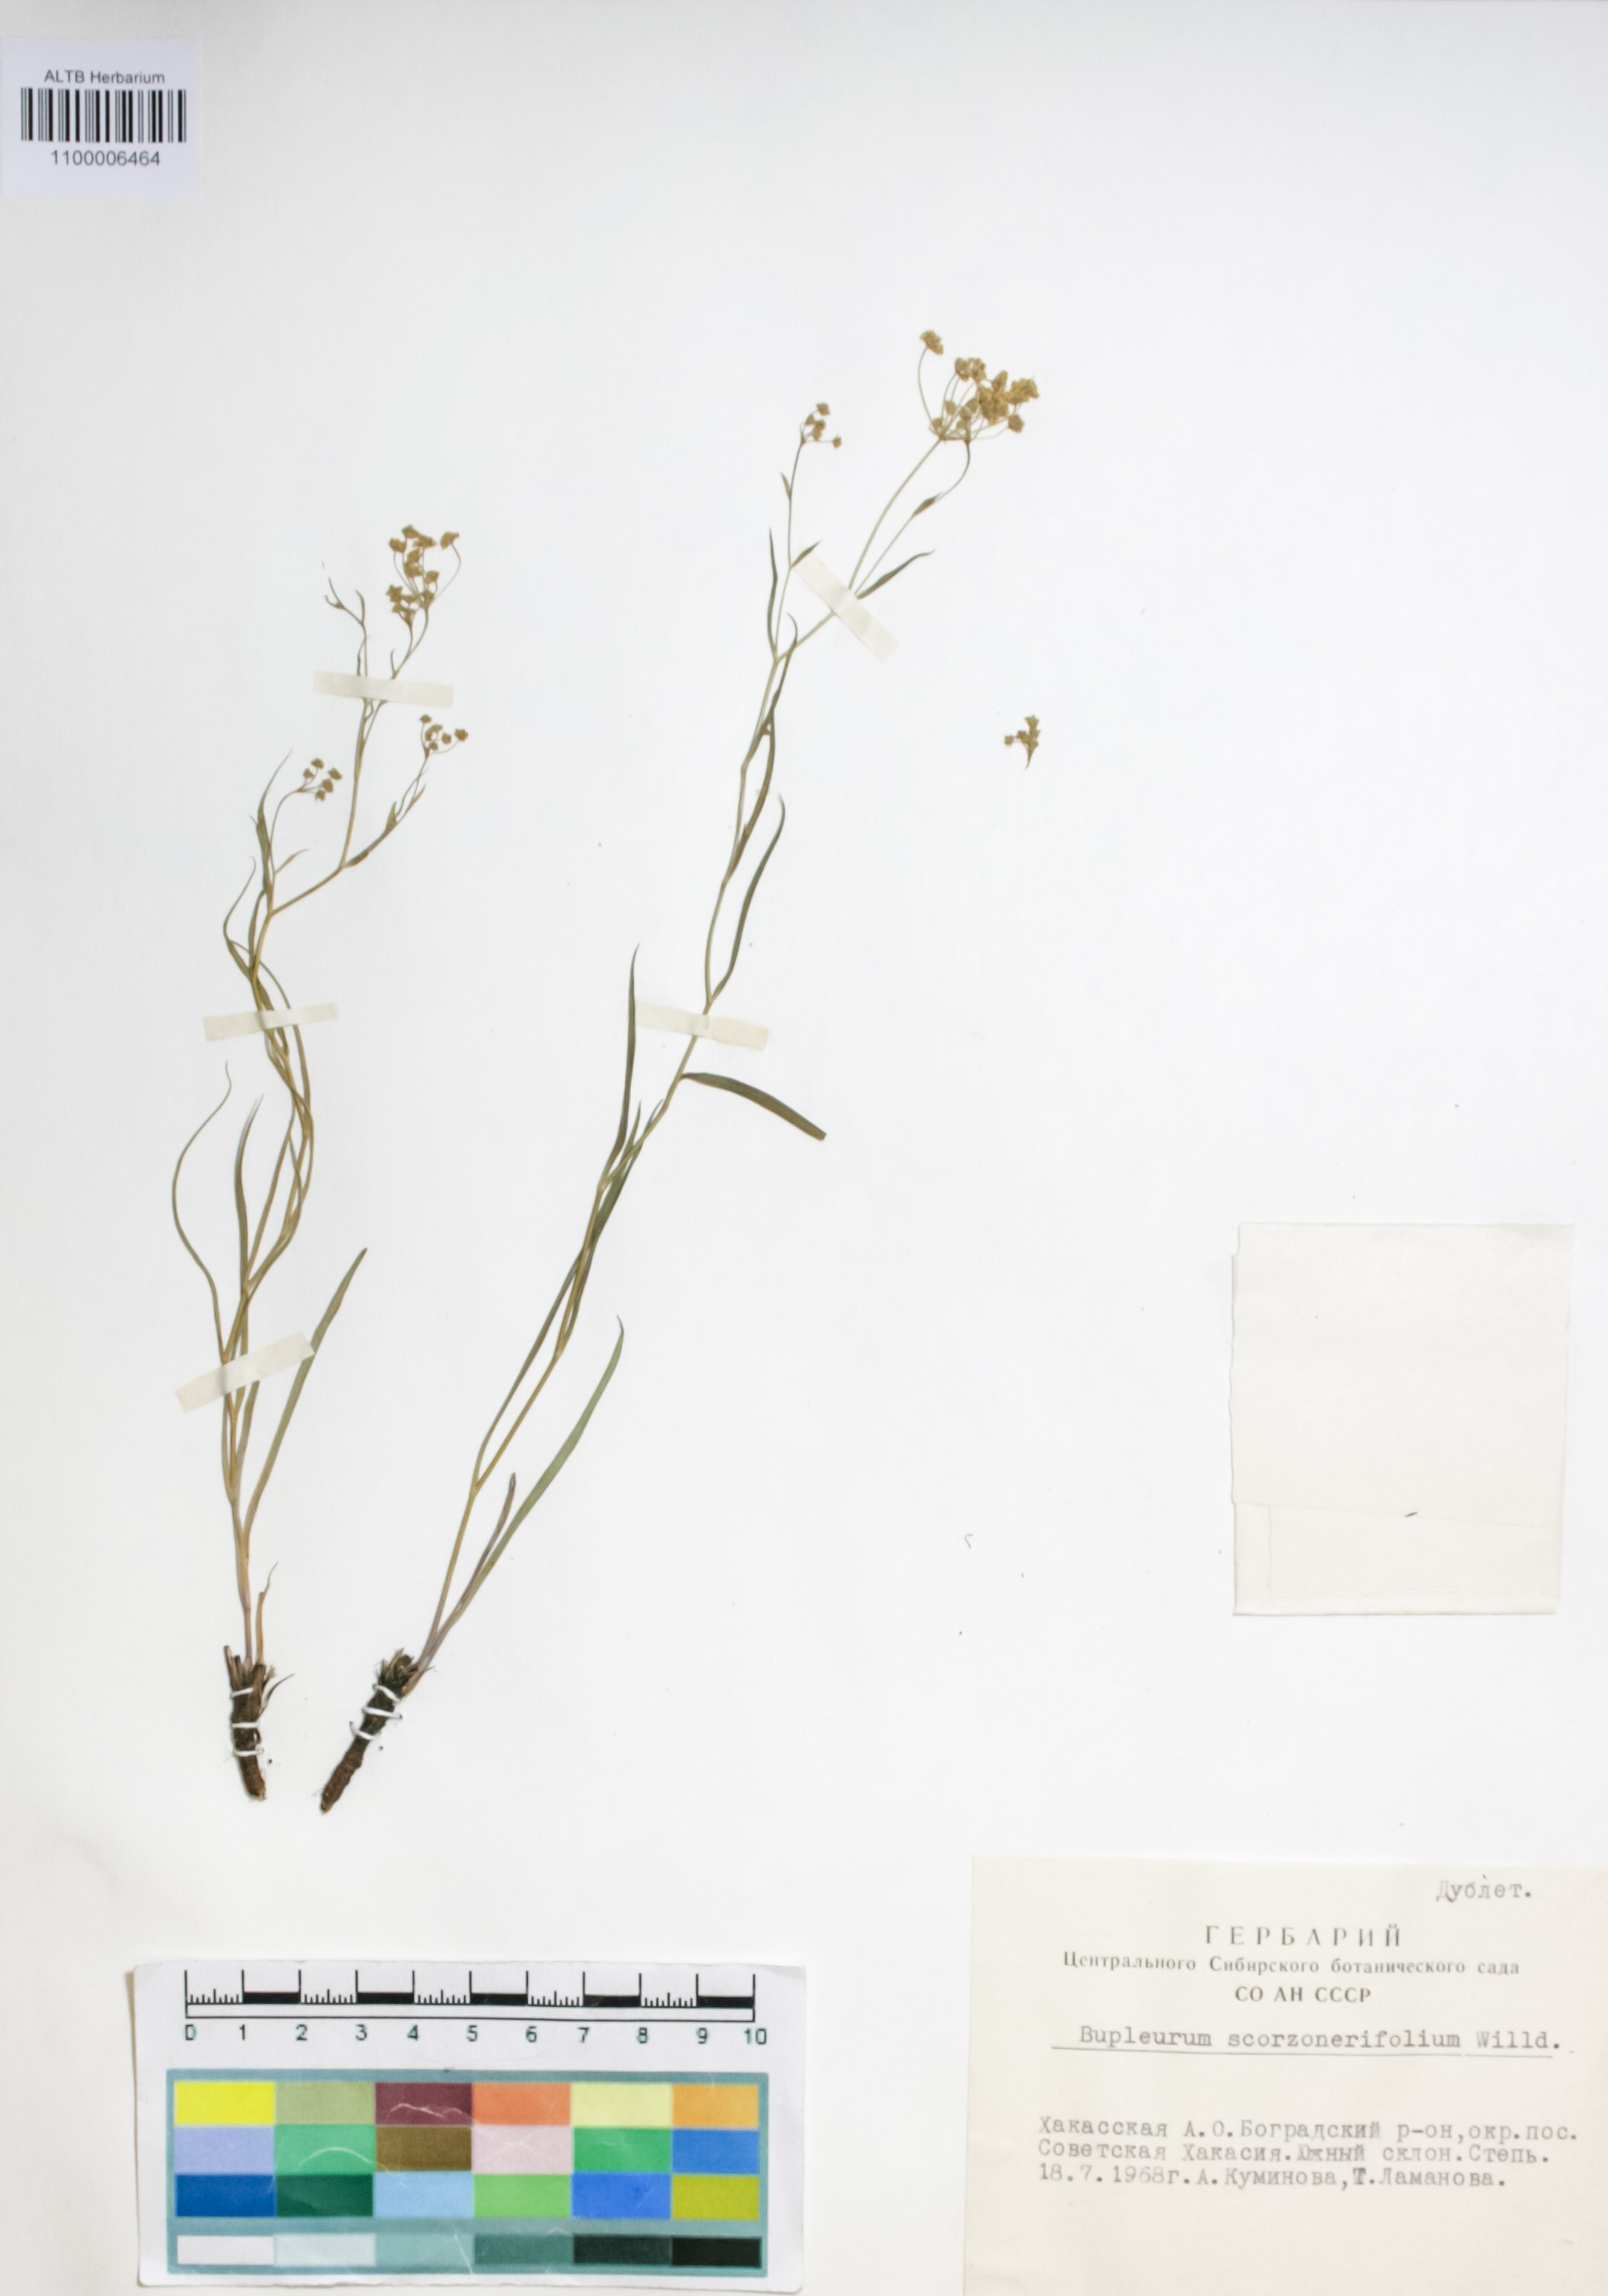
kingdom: Plantae
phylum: Tracheophyta
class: Liliopsida
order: Liliales
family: Liliaceae
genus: Erythronium
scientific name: Erythronium sibiricum
